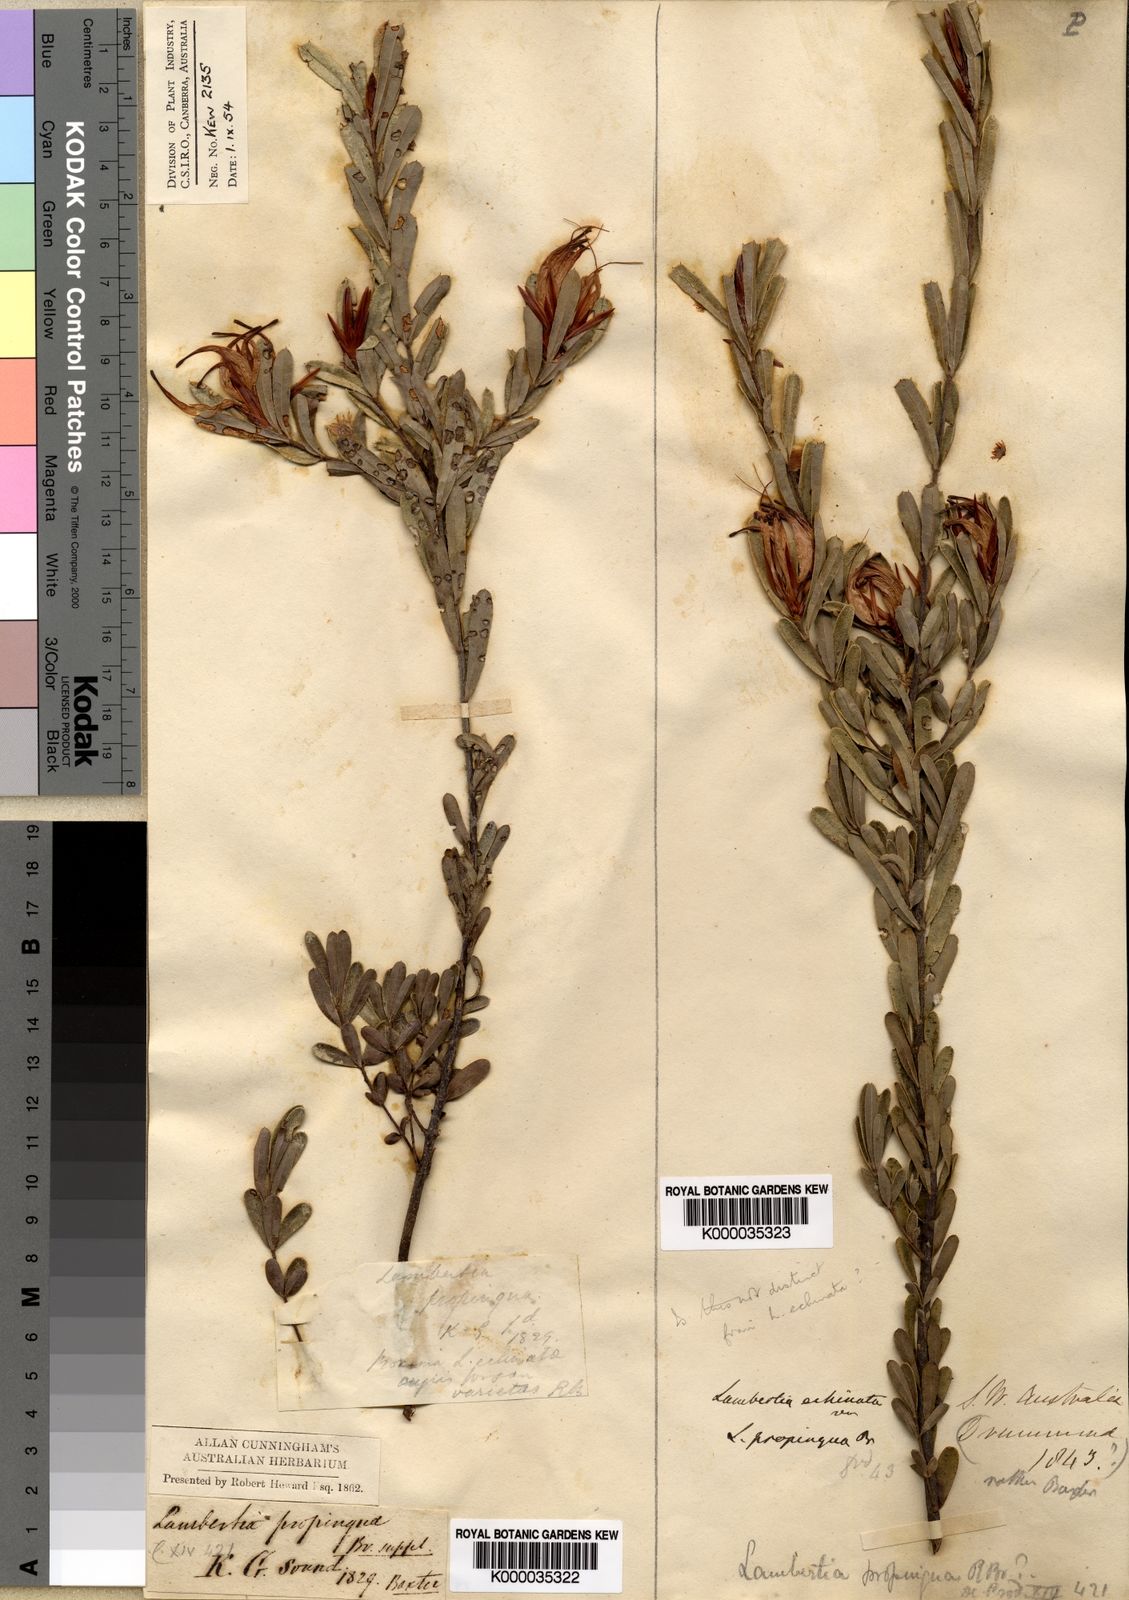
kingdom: Plantae
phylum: Tracheophyta
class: Magnoliopsida
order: Proteales
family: Proteaceae
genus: Lambertia
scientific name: Lambertia echinata
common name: Prickly honeysuckle
